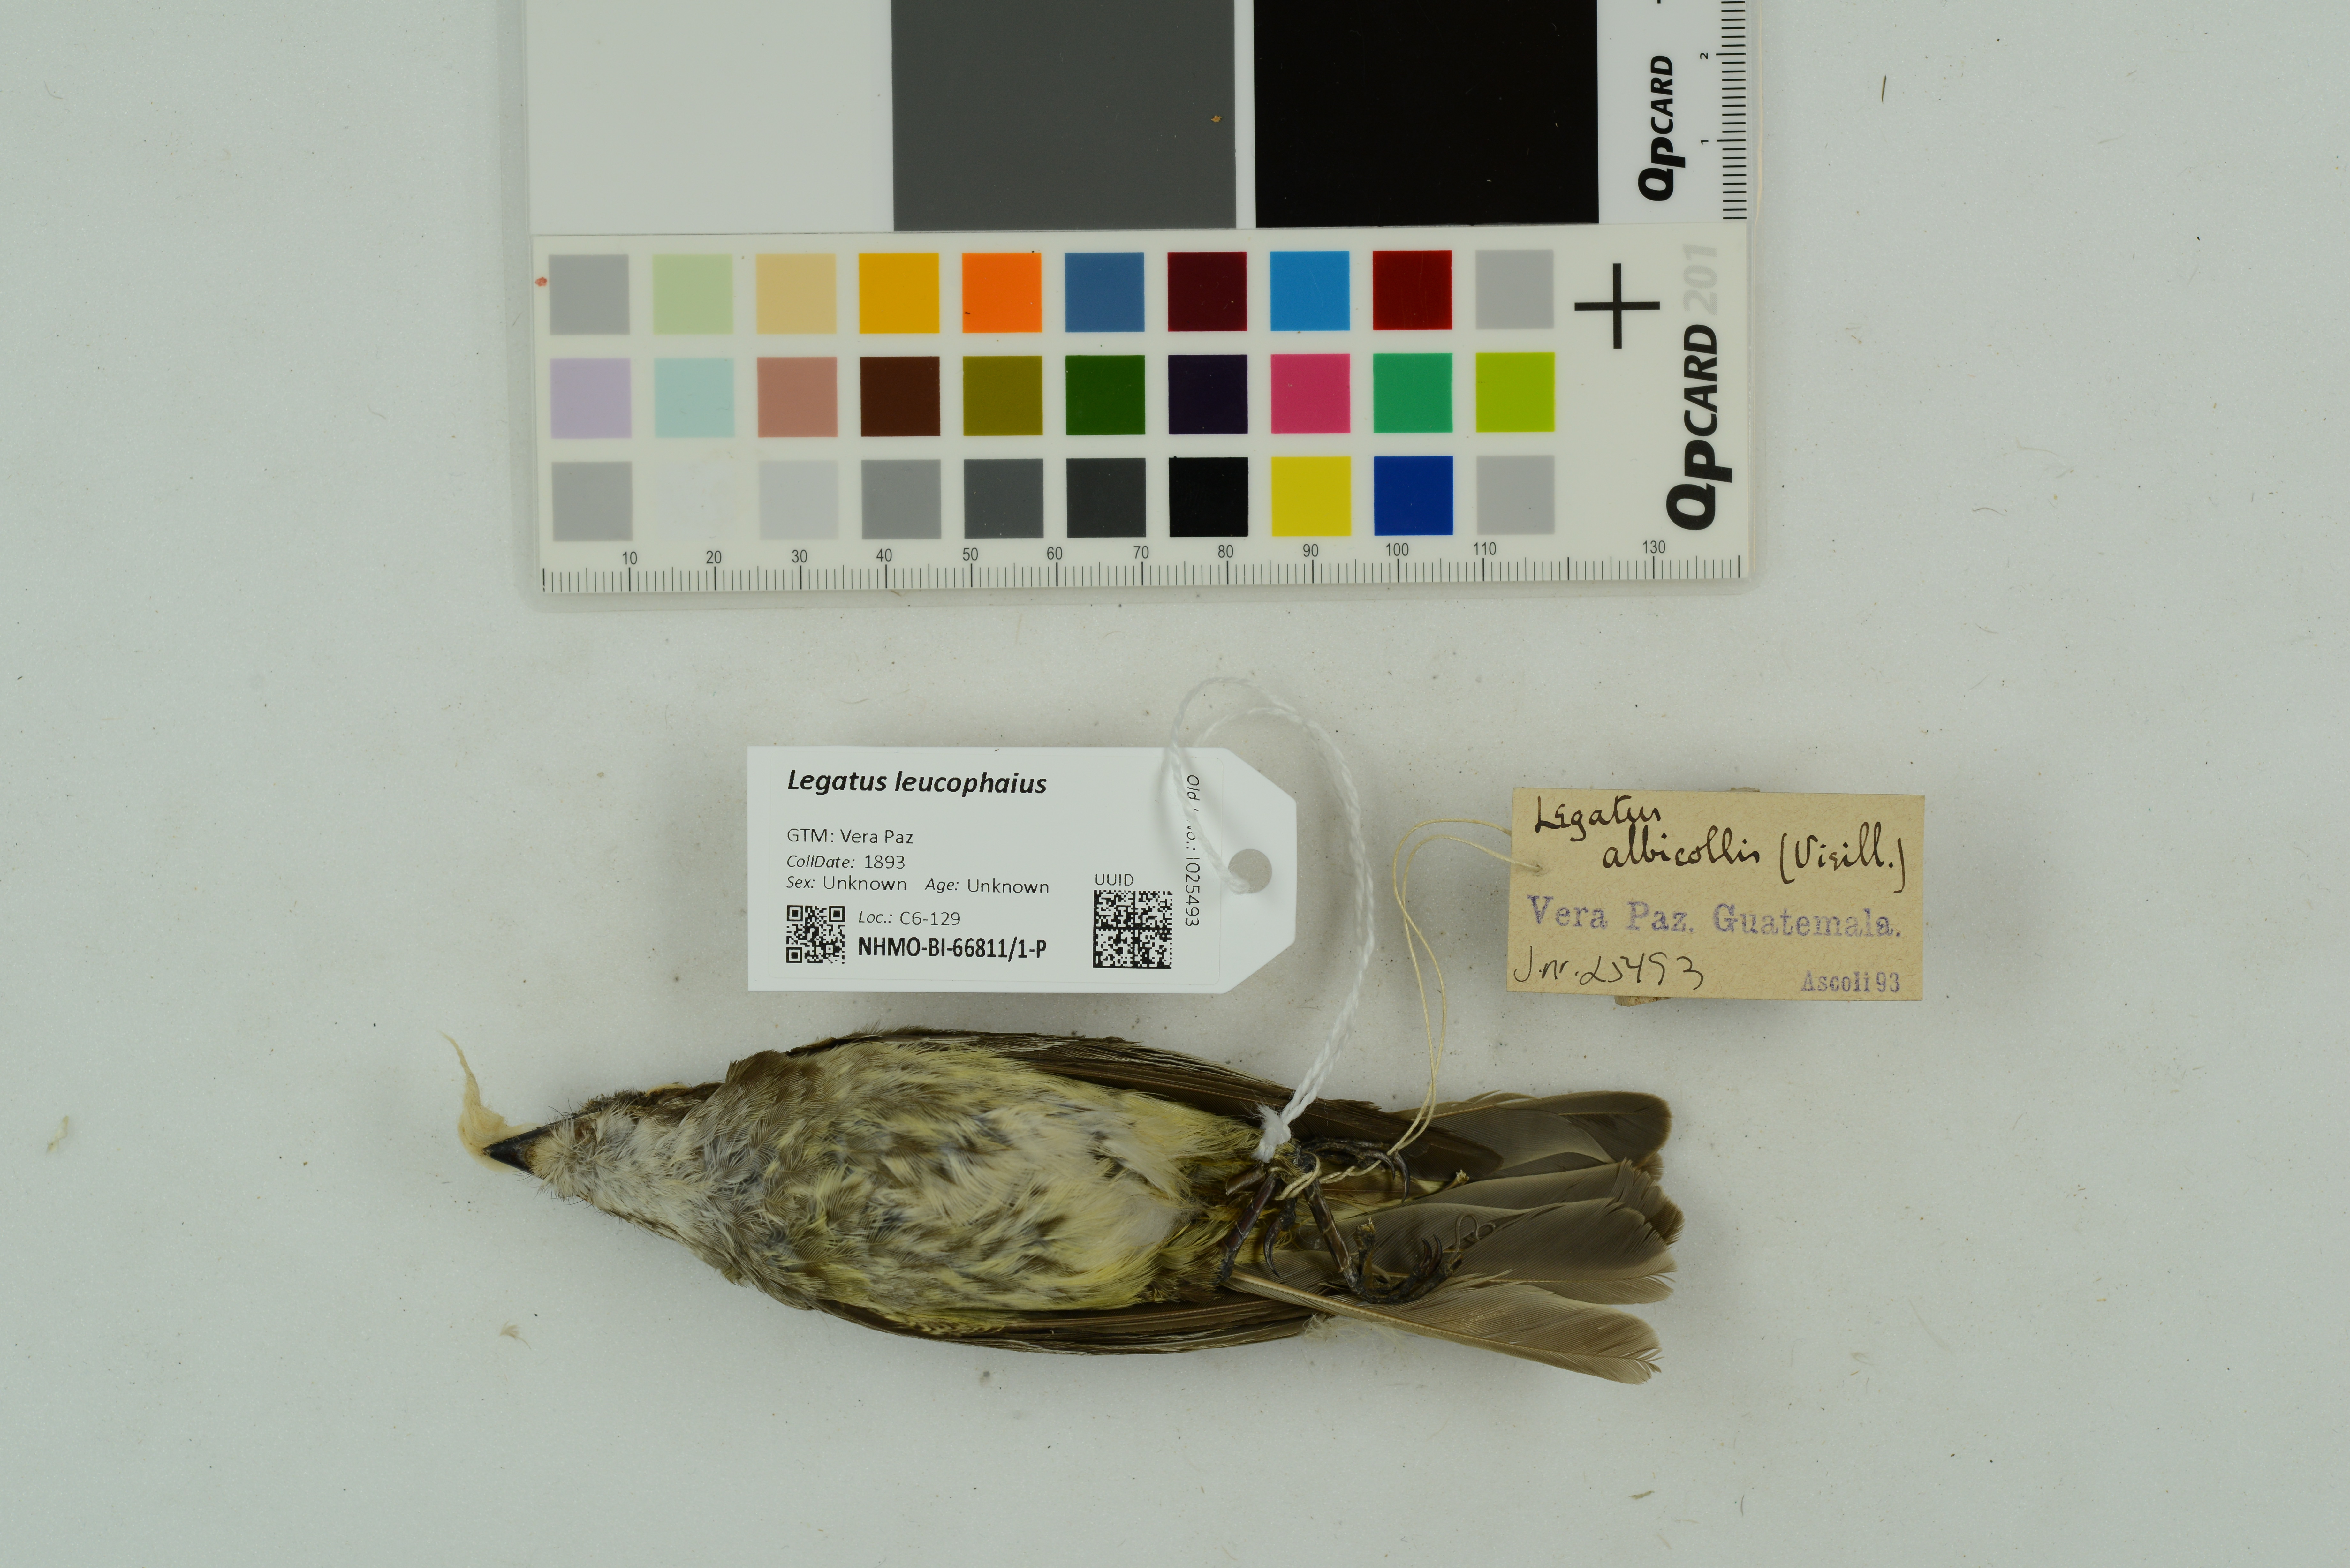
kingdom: Animalia
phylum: Chordata
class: Aves
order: Passeriformes
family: Tyrannidae
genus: Legatus
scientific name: Legatus leucophaius
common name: Piratic flycatcher
